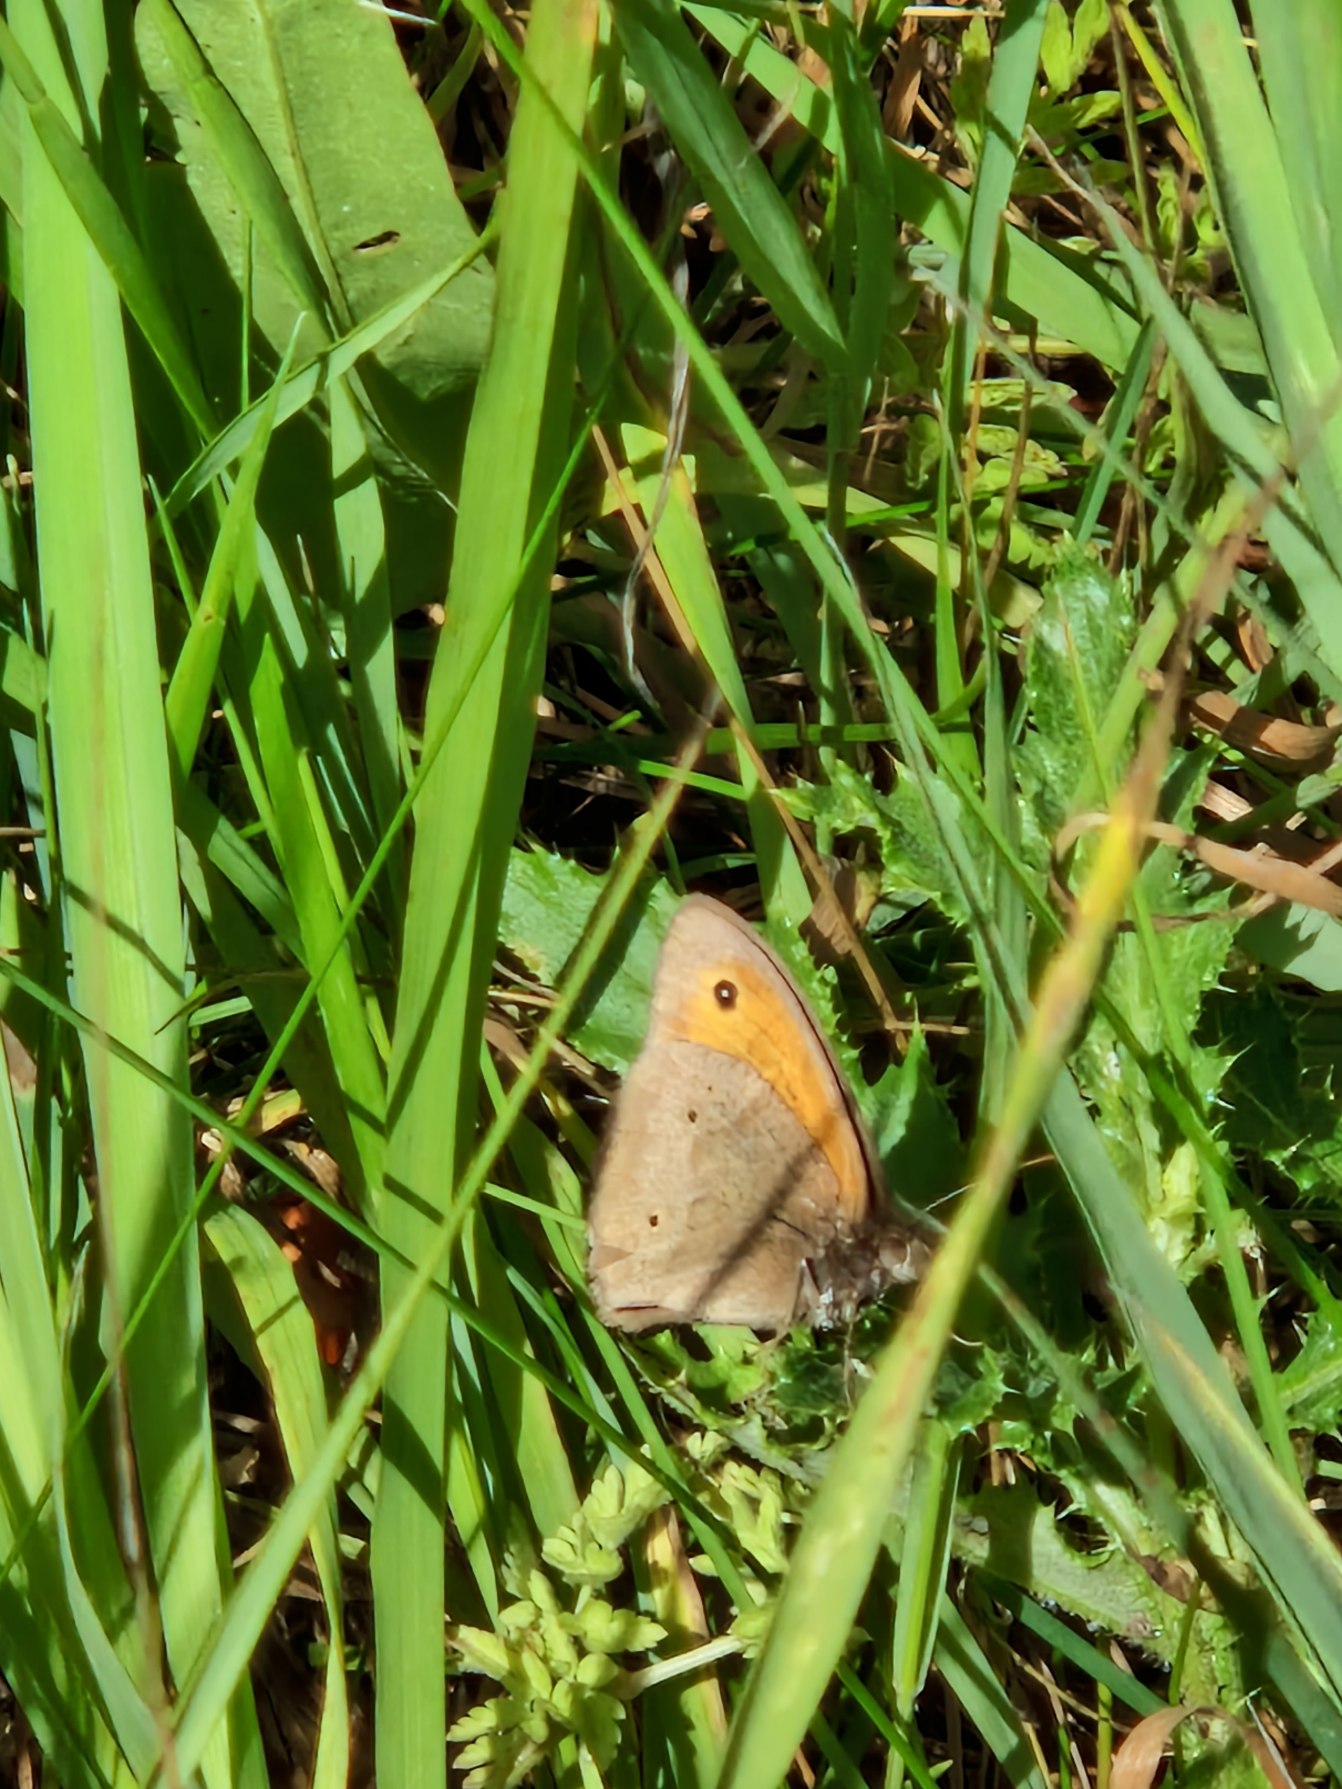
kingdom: Animalia
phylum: Arthropoda
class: Insecta
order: Lepidoptera
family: Nymphalidae
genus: Maniola
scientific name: Maniola jurtina
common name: Græsrandøje
